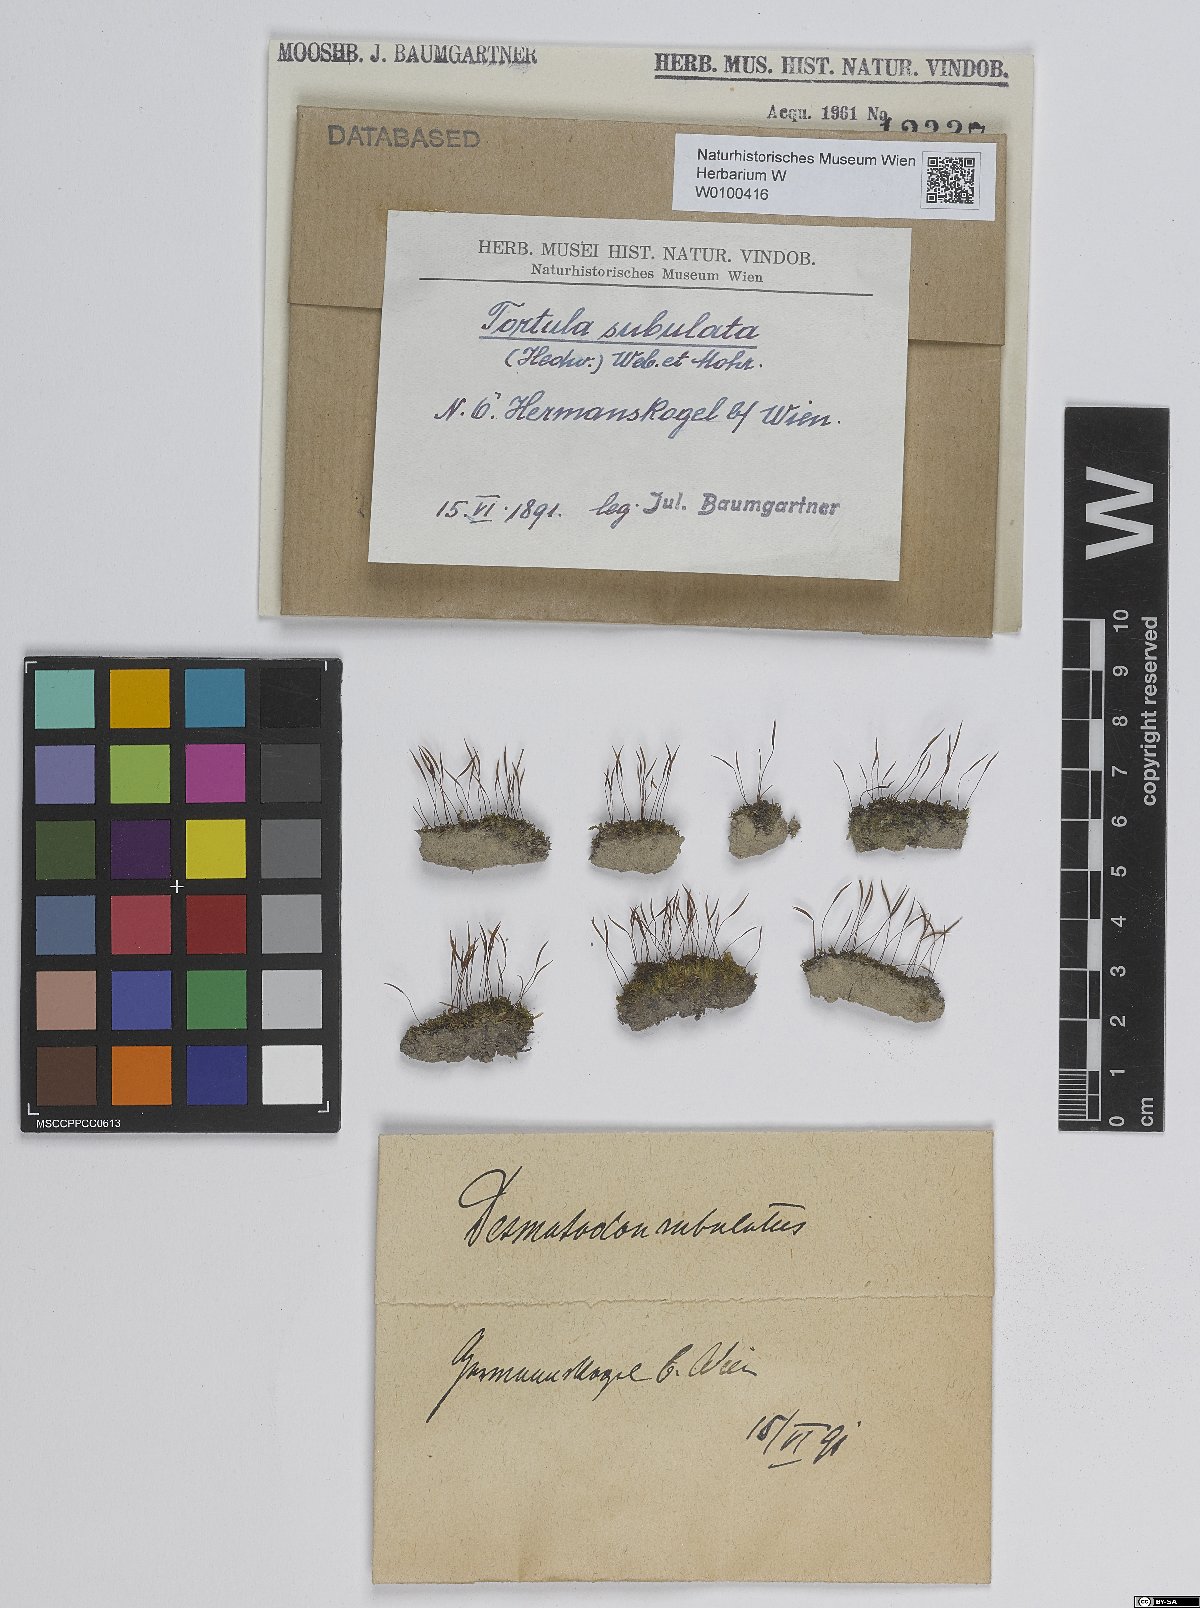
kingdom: Plantae
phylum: Bryophyta
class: Bryopsida
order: Pottiales
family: Pottiaceae
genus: Tortula
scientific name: Tortula schimperi
